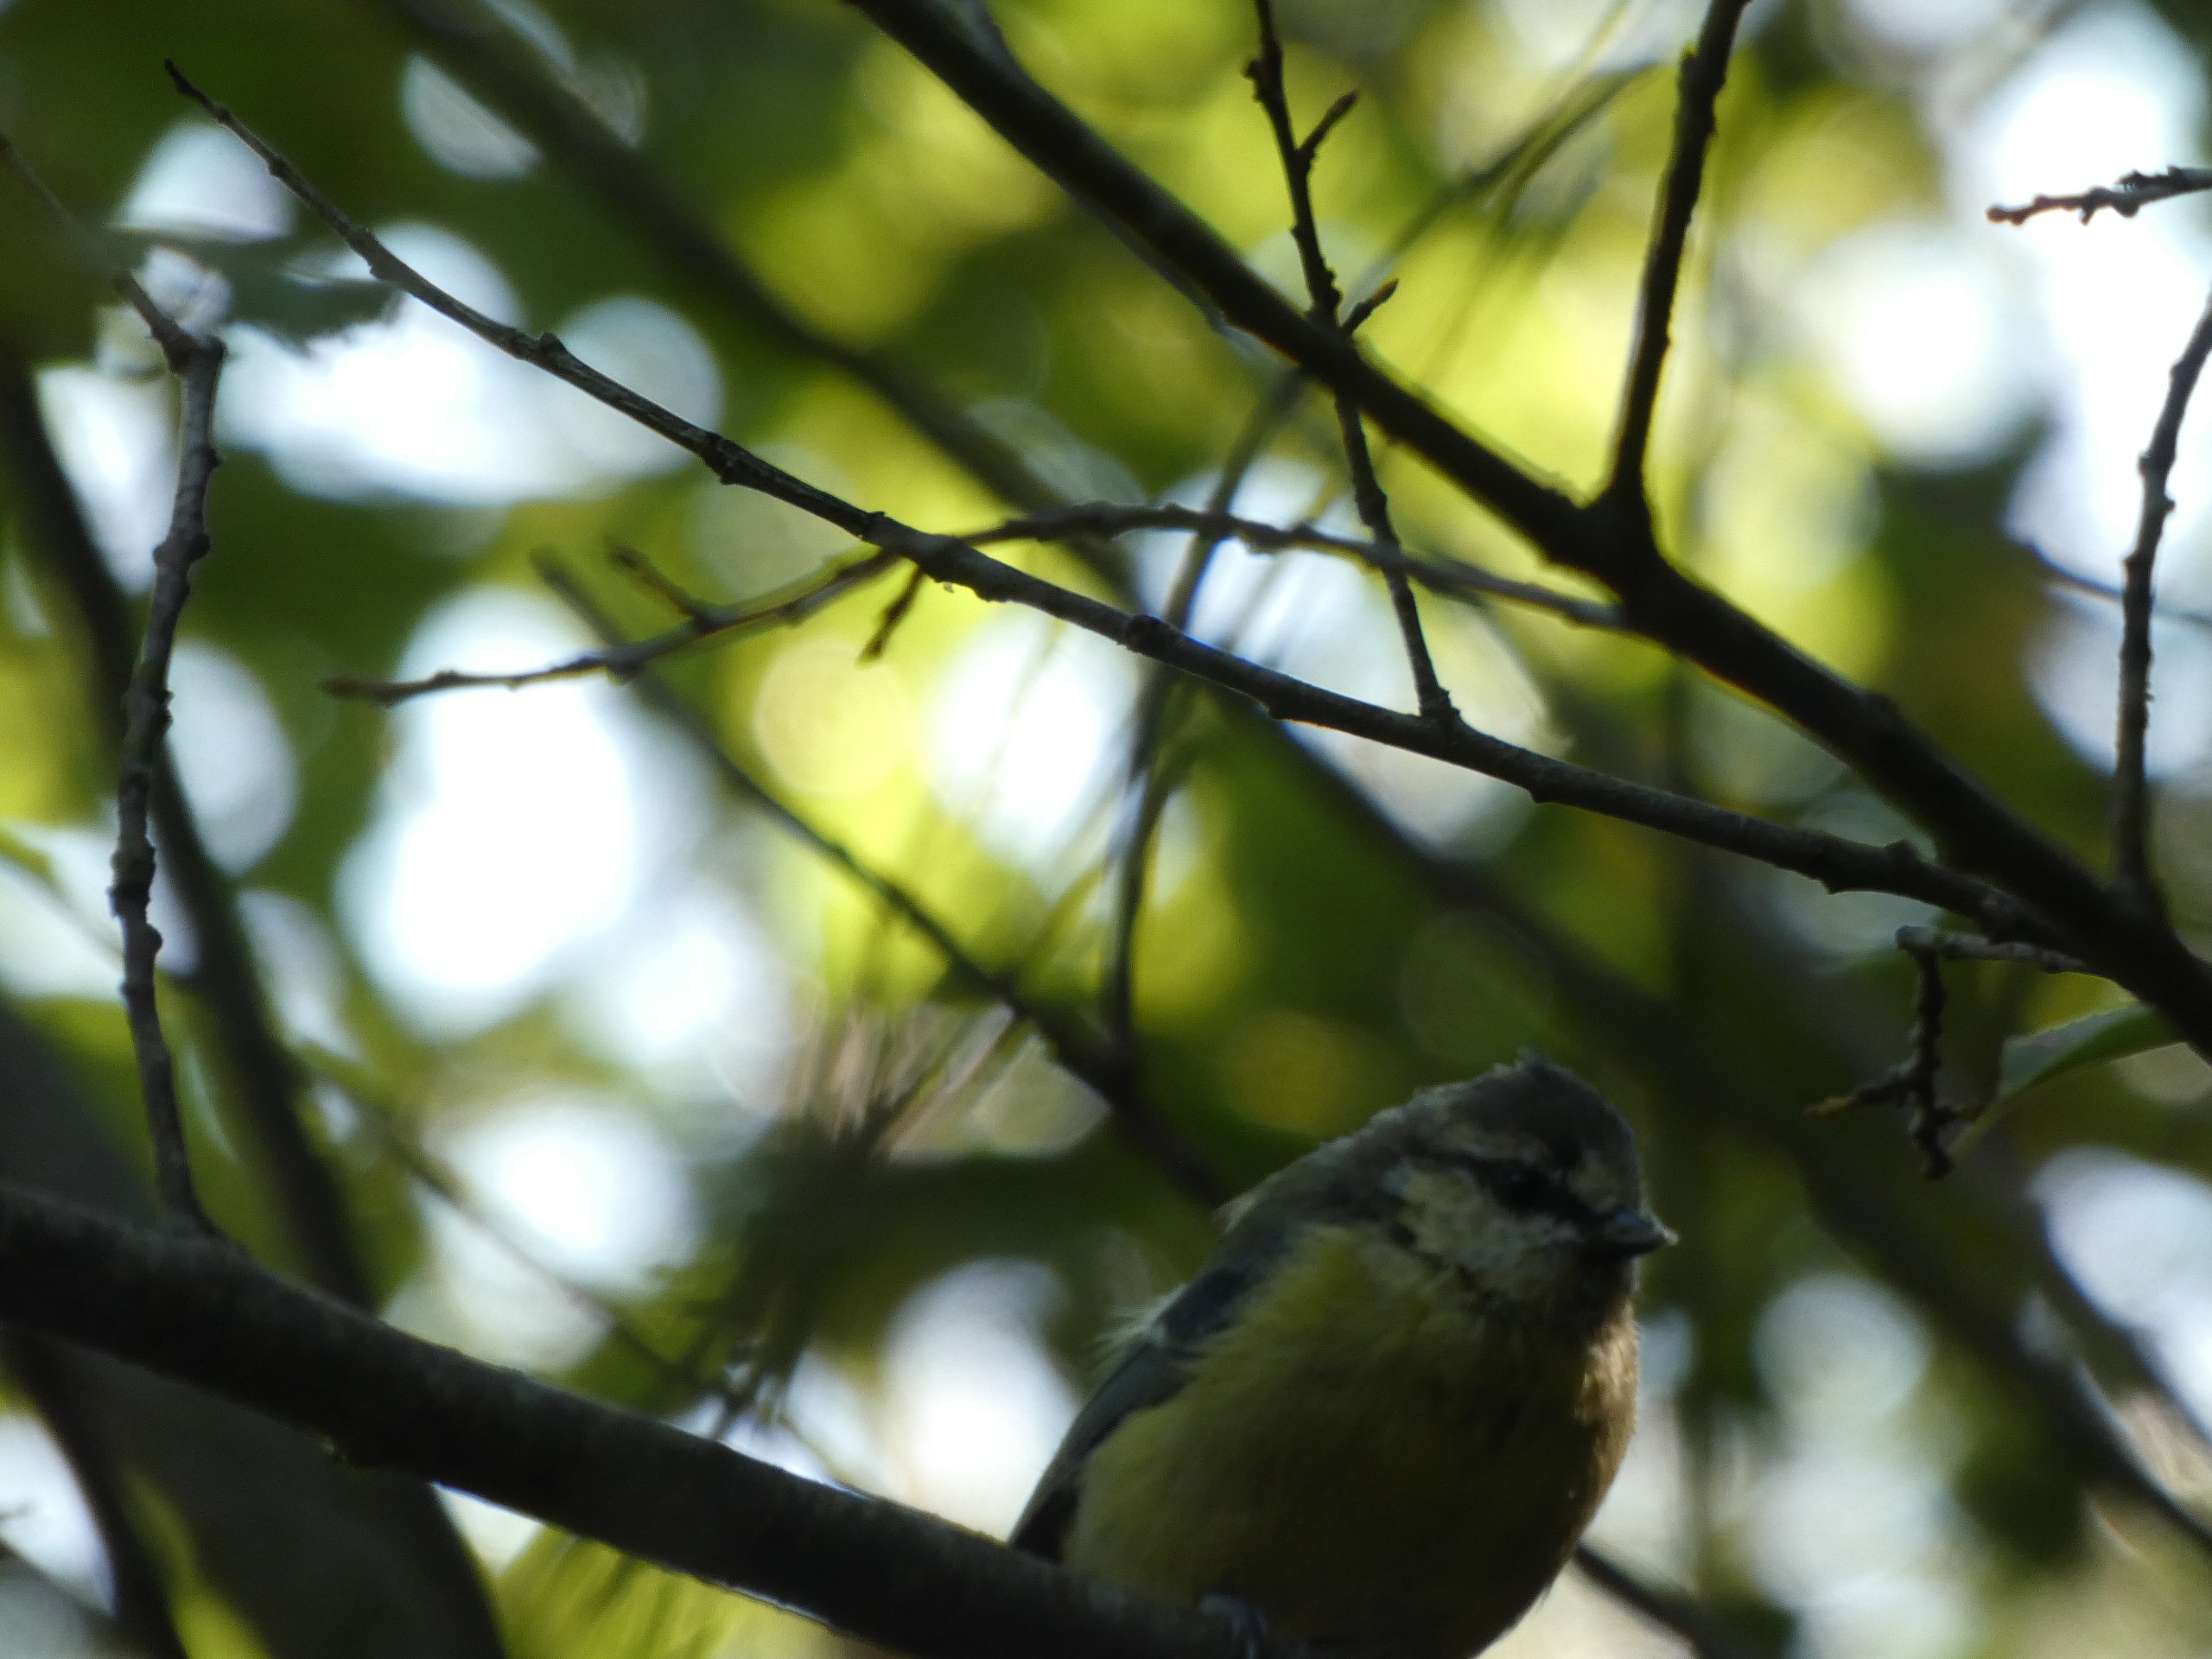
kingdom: Animalia
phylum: Chordata
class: Aves
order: Passeriformes
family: Paridae
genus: Cyanistes
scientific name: Cyanistes caeruleus
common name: Blåmejse
